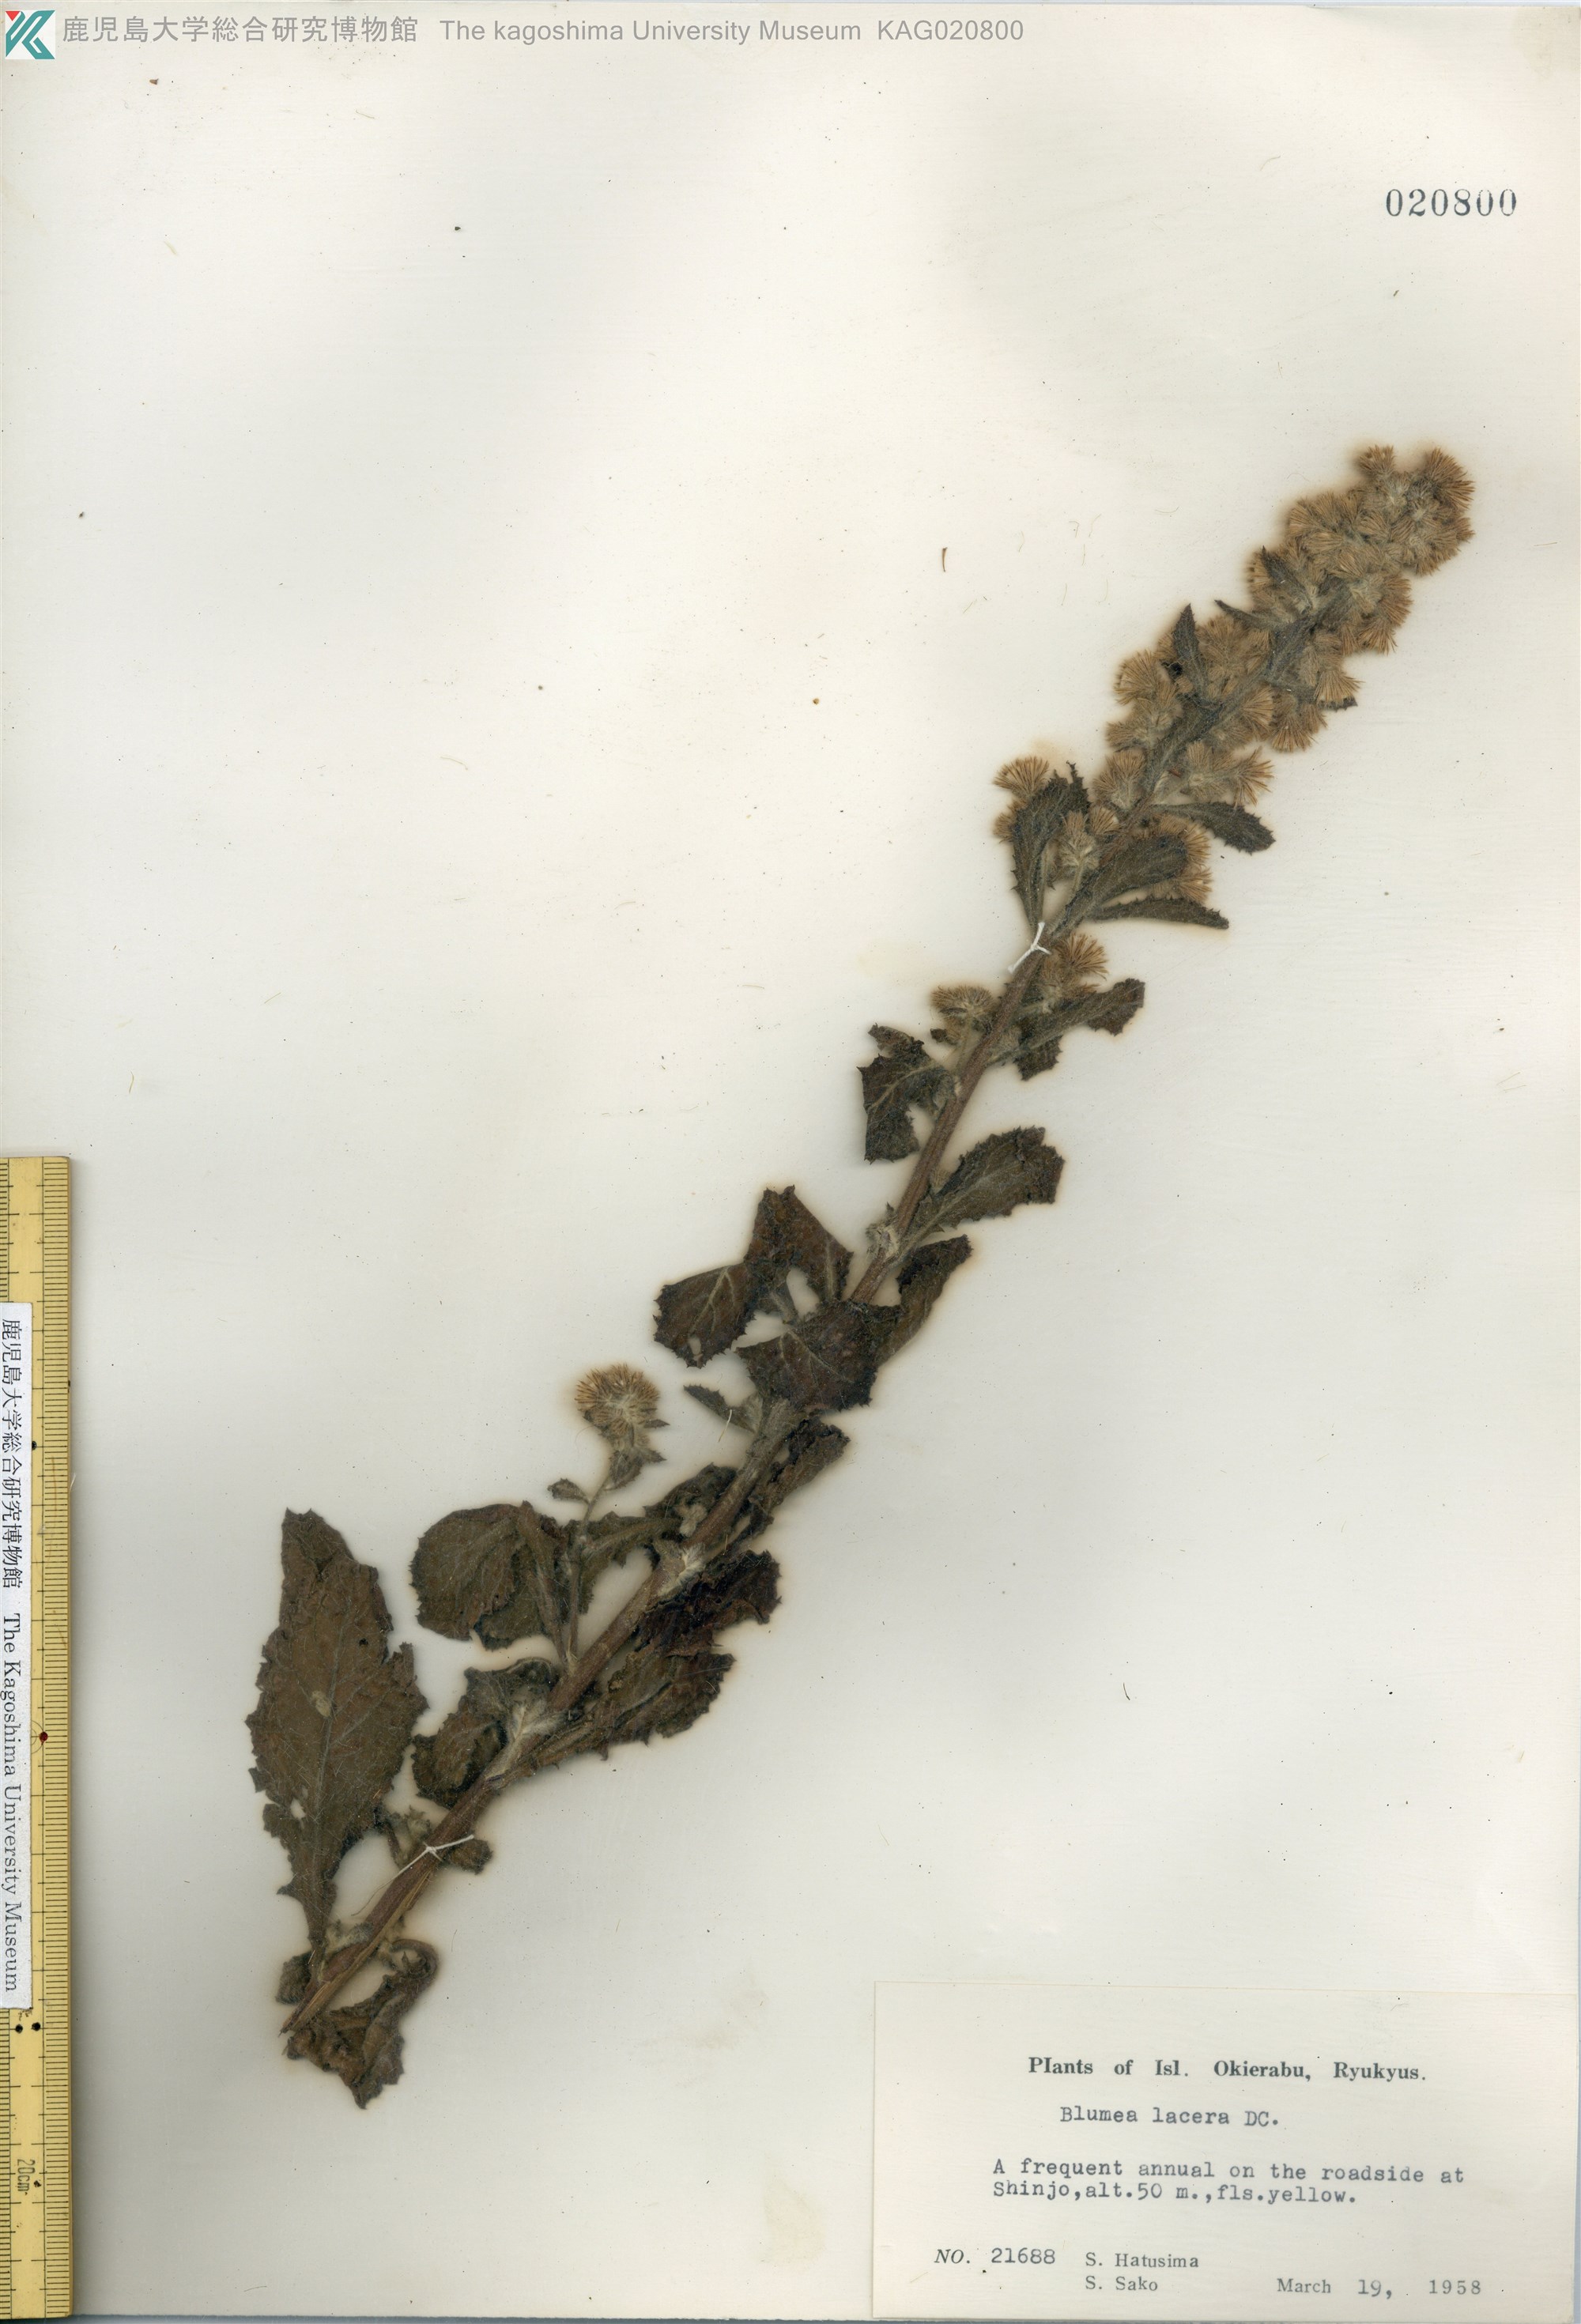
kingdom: Plantae
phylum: Tracheophyta
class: Magnoliopsida
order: Asterales
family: Asteraceae
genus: Blumea
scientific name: Blumea lacera
